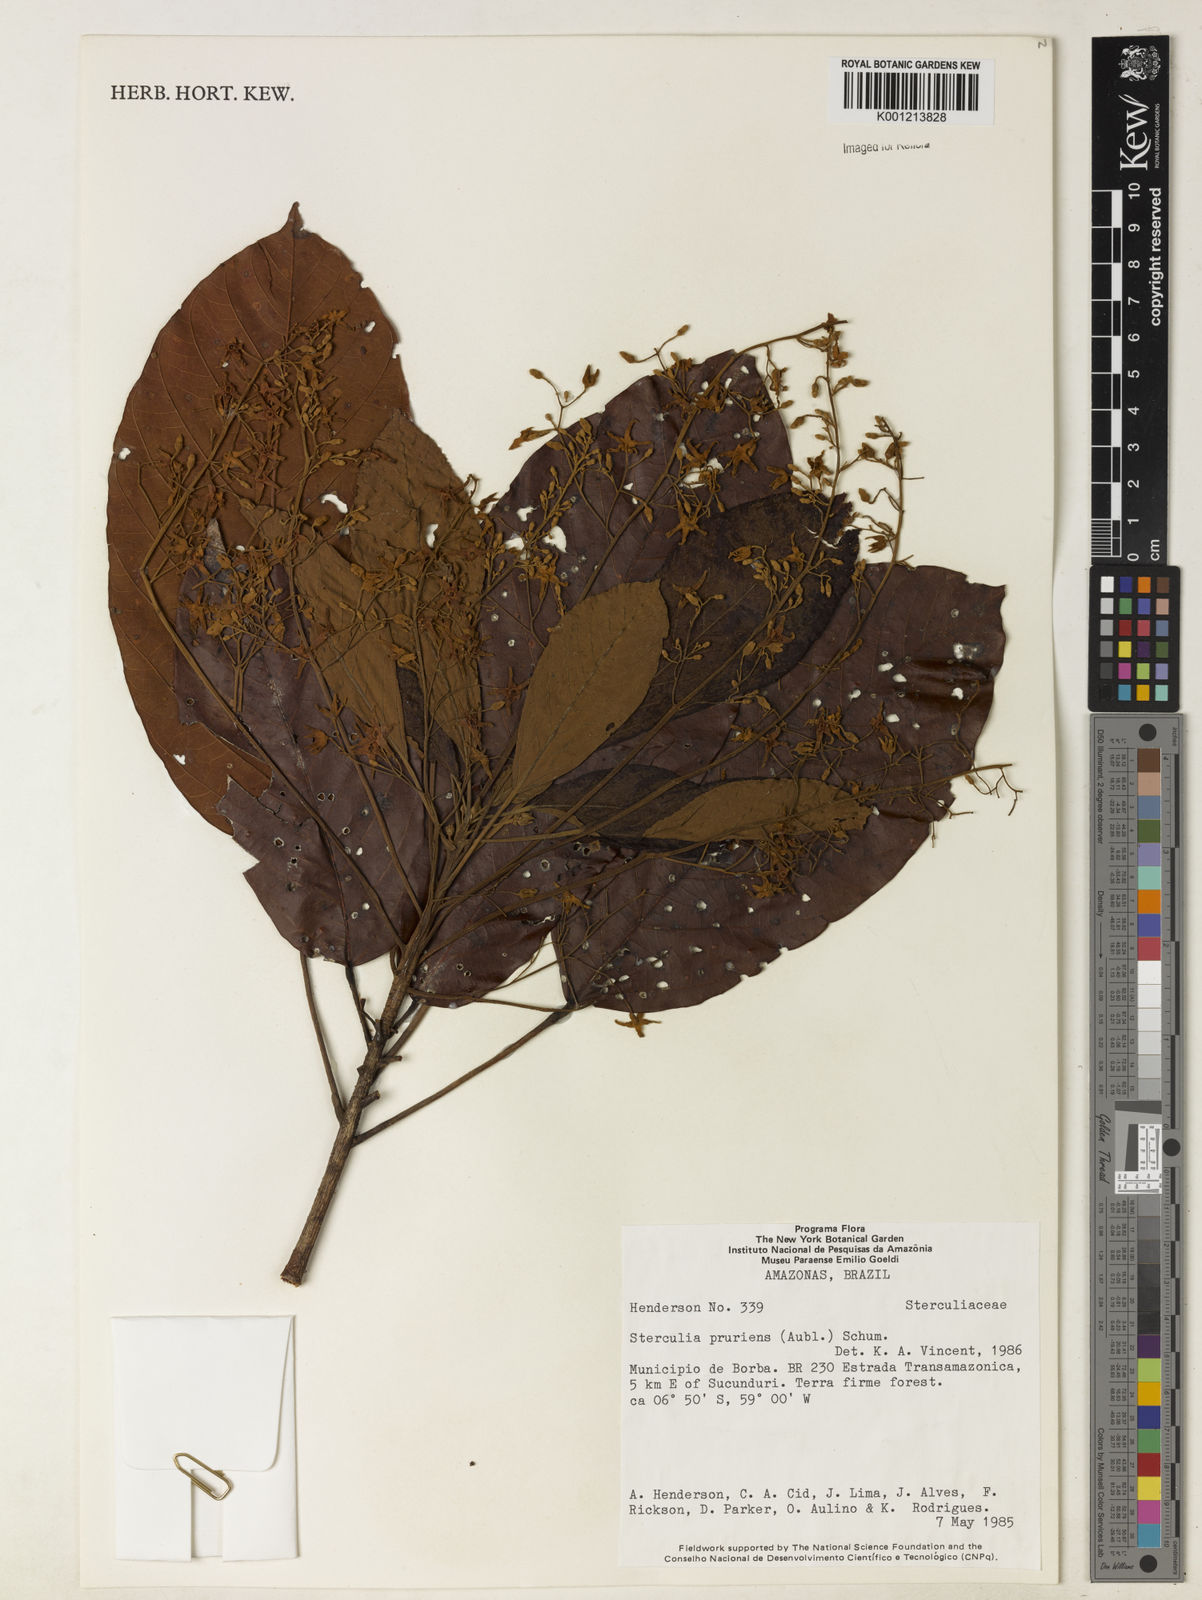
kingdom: Plantae
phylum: Tracheophyta
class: Magnoliopsida
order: Malvales
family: Malvaceae
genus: Sterculia
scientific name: Sterculia pruriens
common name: Grand mahot
